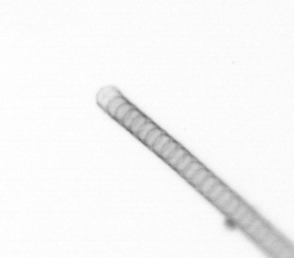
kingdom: Chromista
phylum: Ochrophyta
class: Bacillariophyceae
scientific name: Bacillariophyceae
